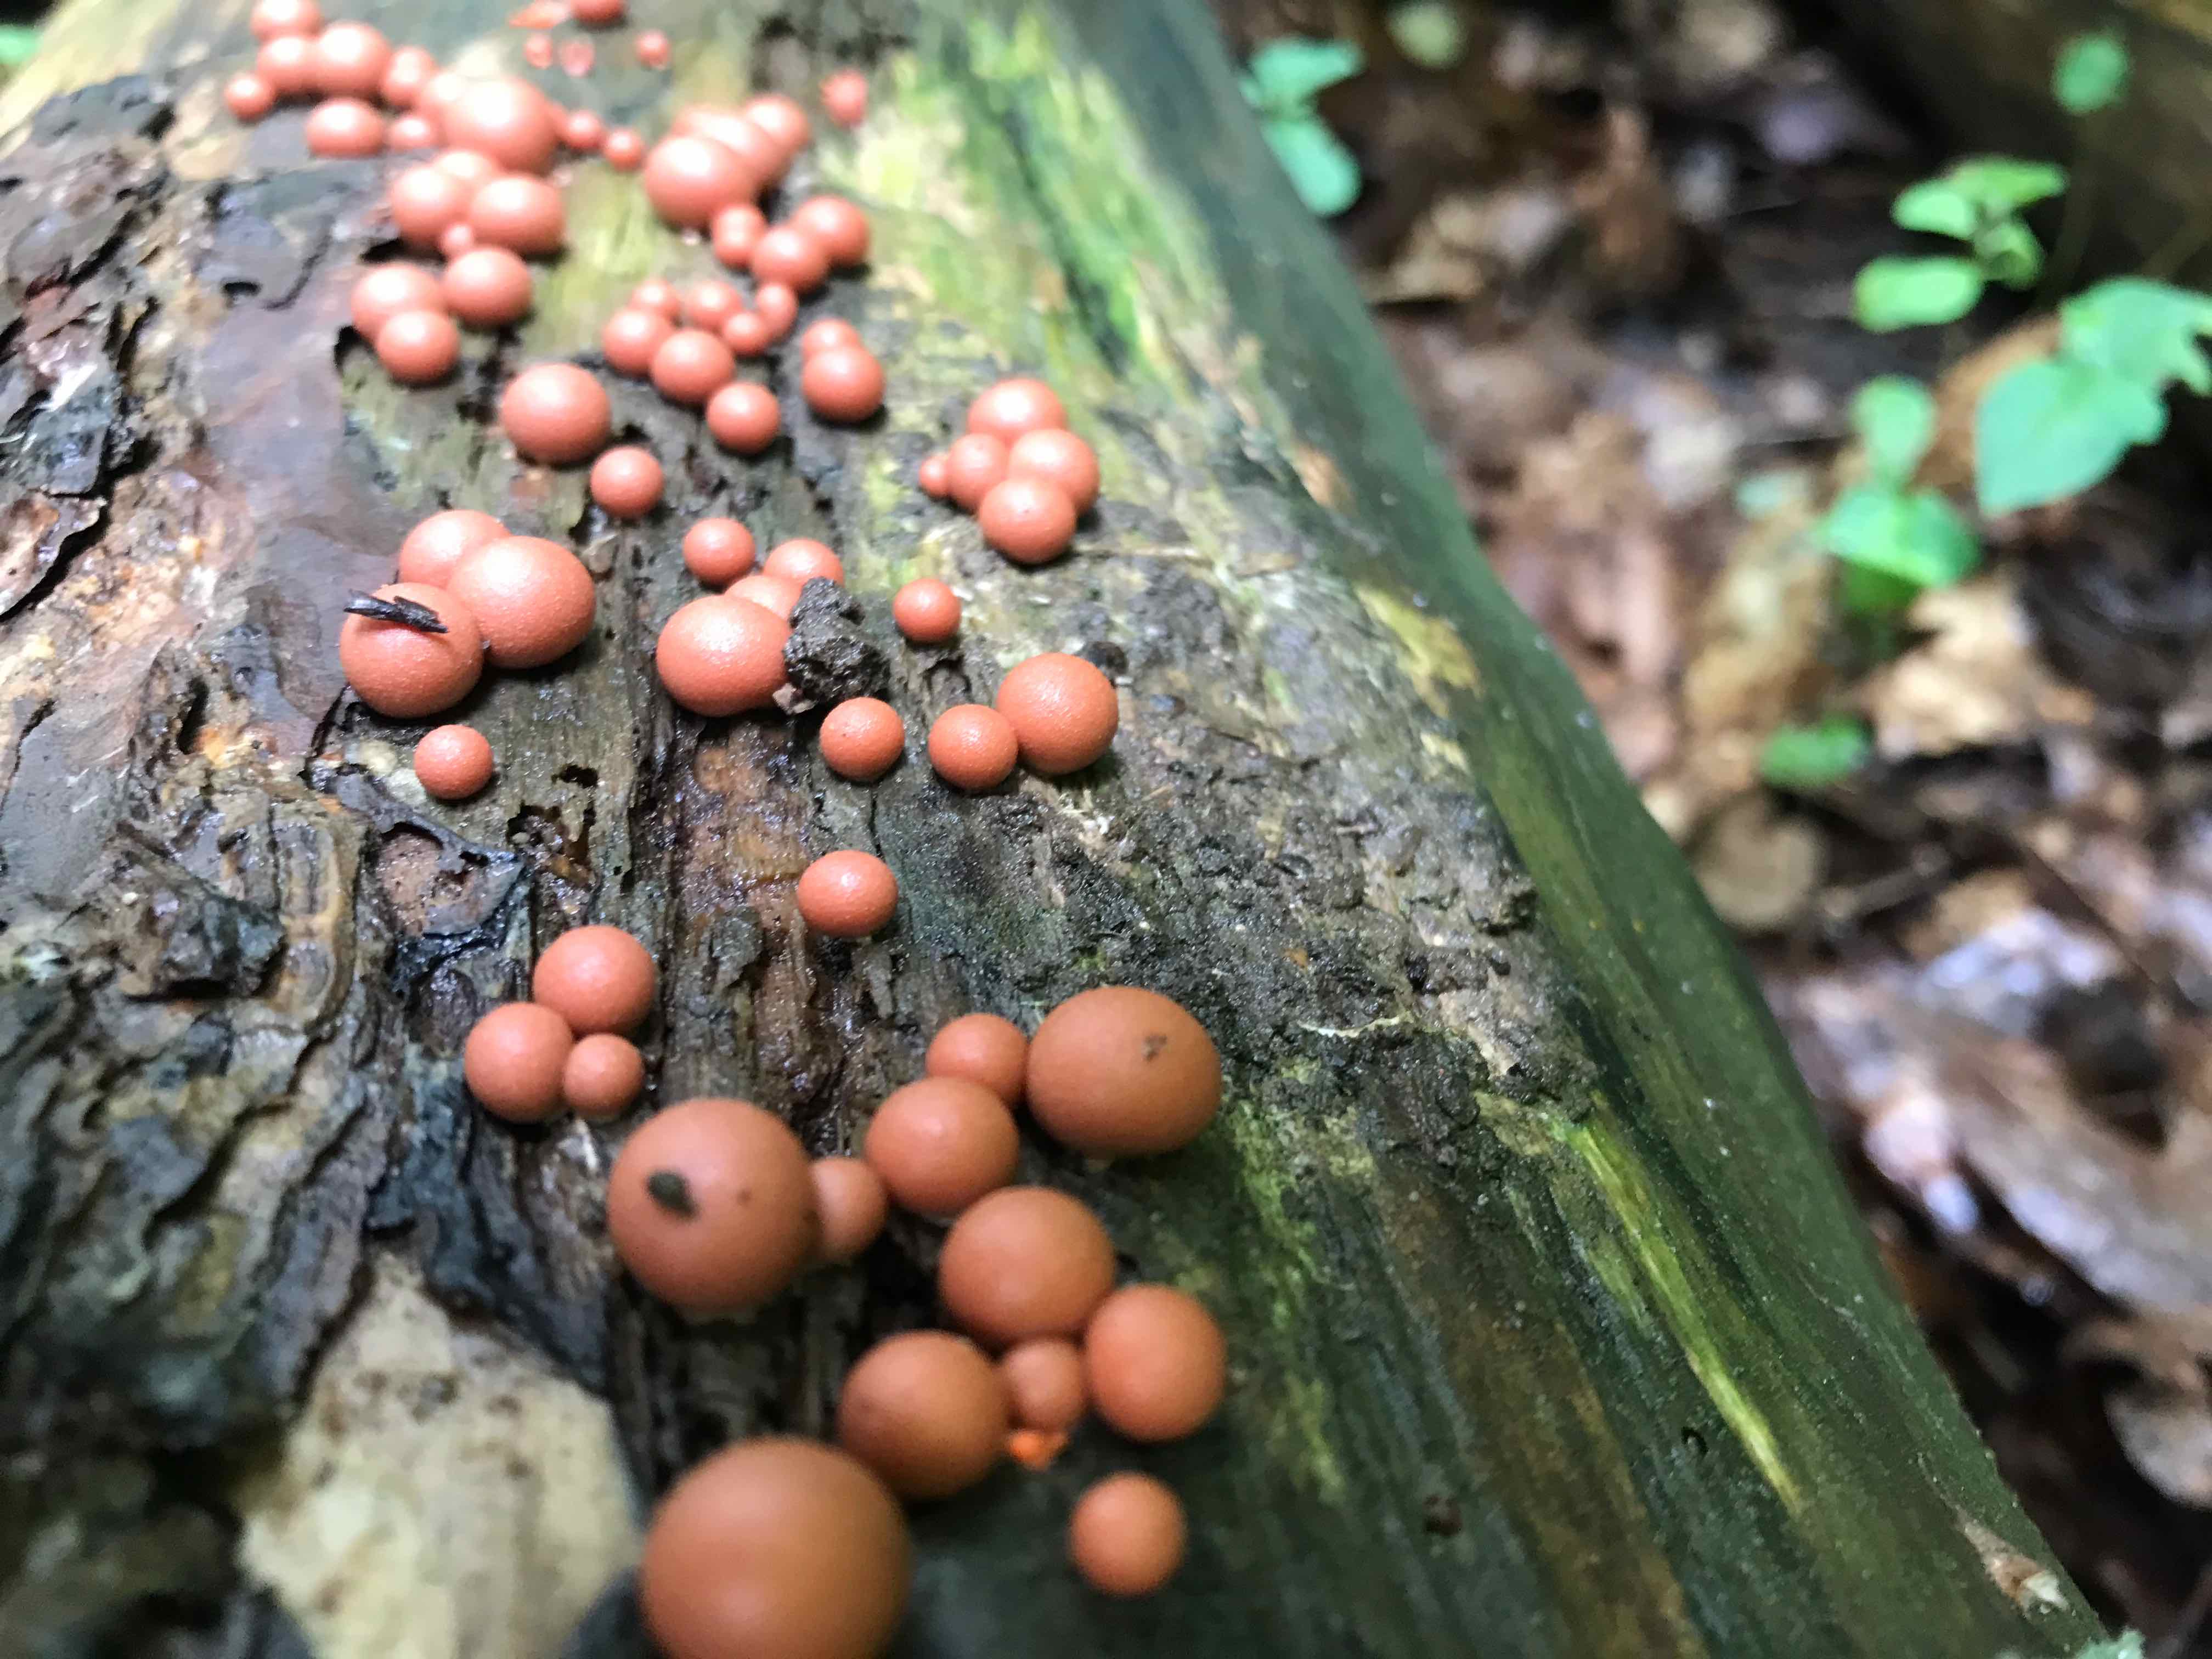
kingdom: Protozoa
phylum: Mycetozoa
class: Myxomycetes
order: Cribrariales
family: Tubiferaceae
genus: Lycogala
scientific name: Lycogala epidendrum
